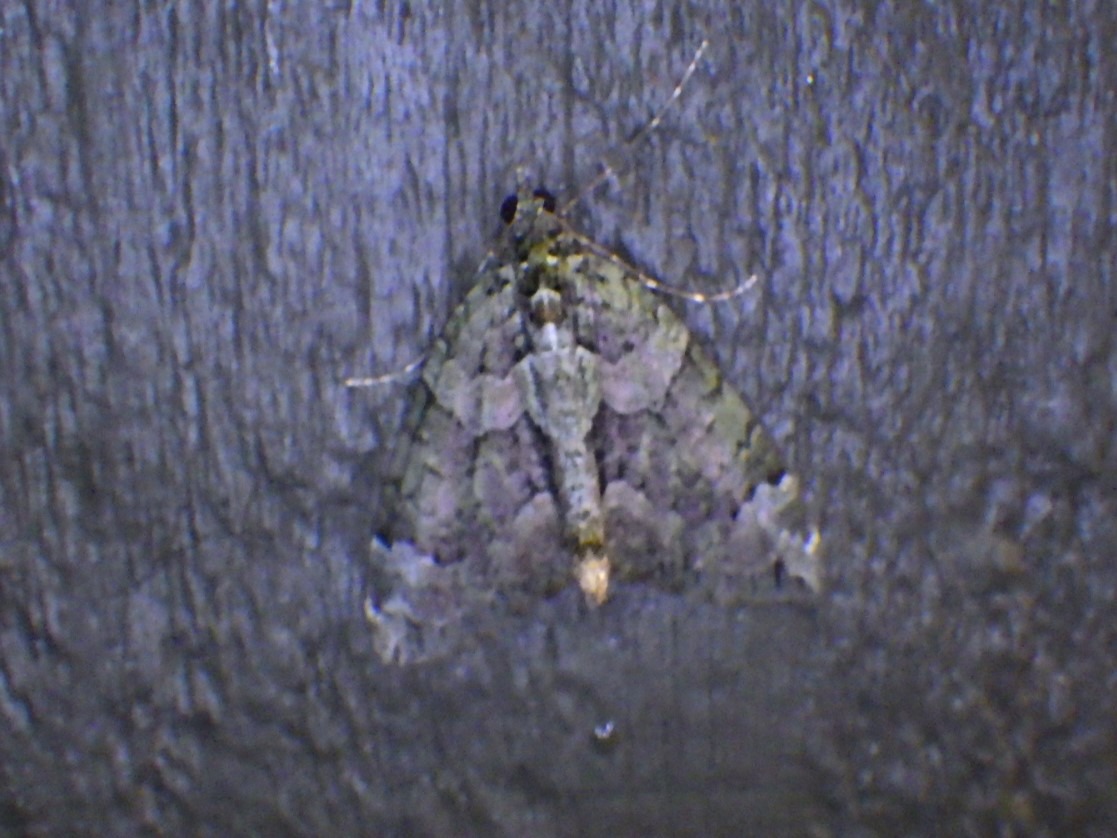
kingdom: Animalia
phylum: Arthropoda
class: Insecta
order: Lepidoptera
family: Geometridae
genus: Chloroclysta
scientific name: Chloroclysta siterata
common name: Brungrøn bladmåler
